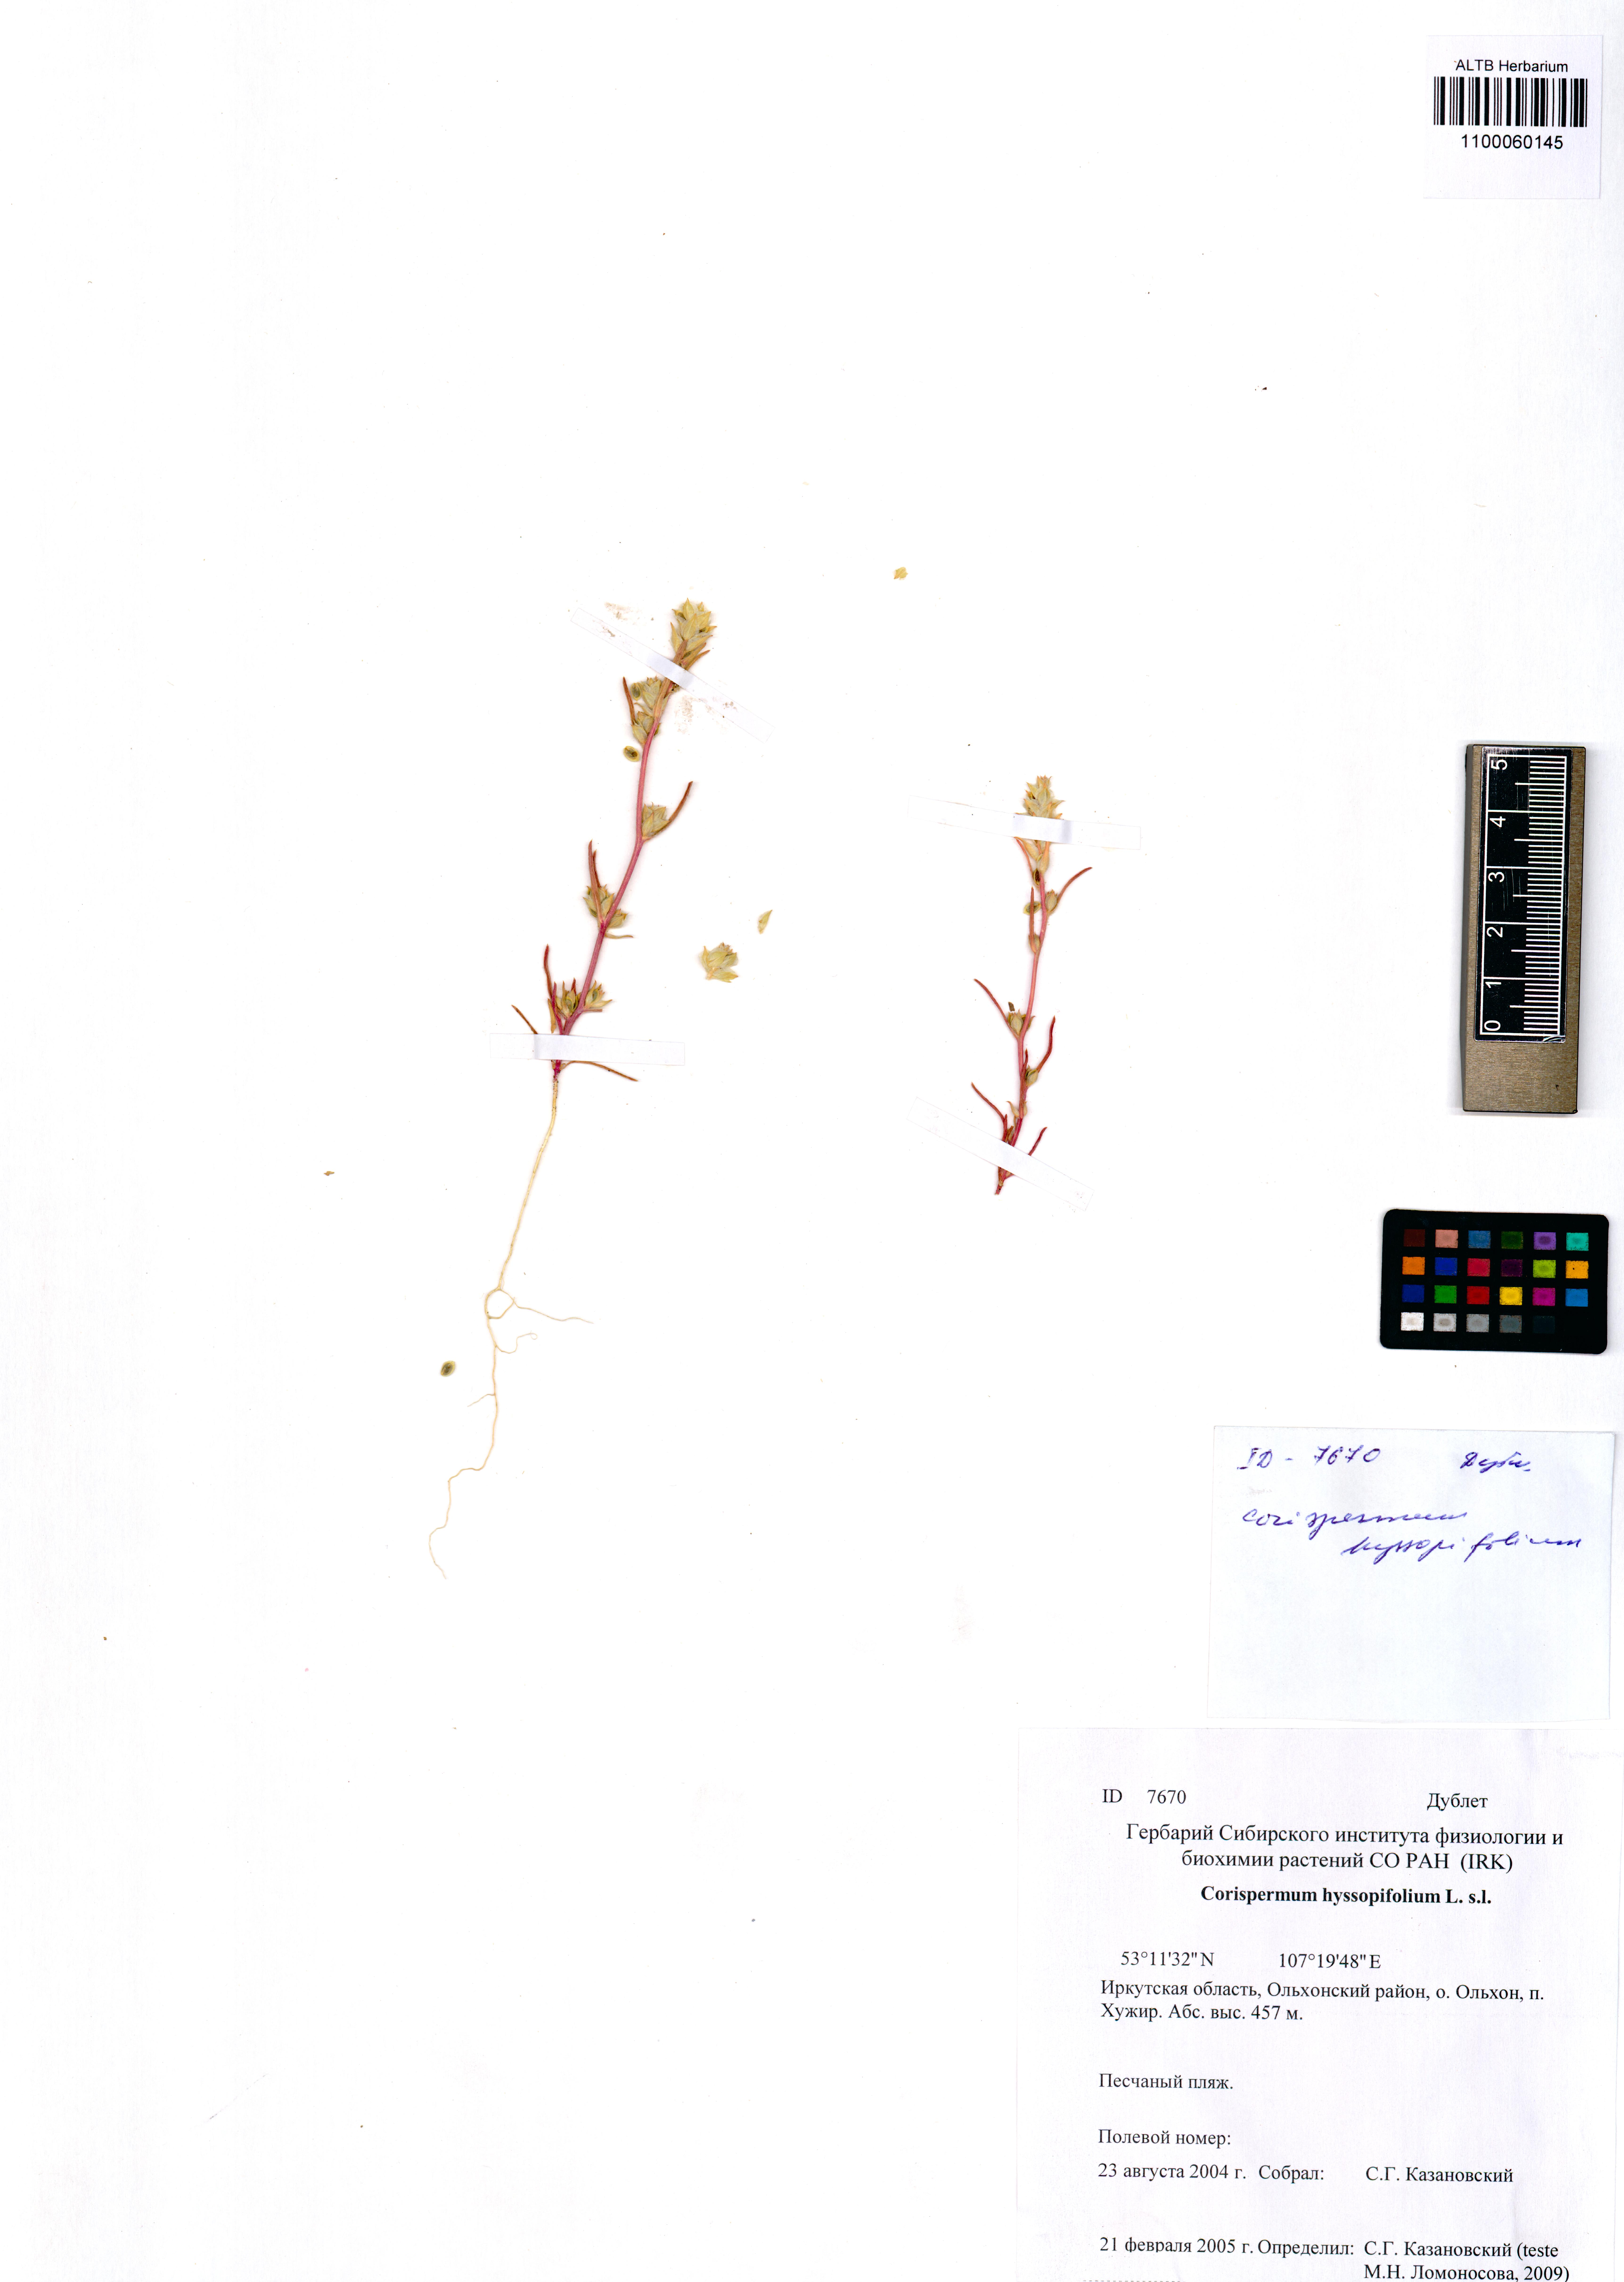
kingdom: Plantae
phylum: Tracheophyta
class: Magnoliopsida
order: Caryophyllales
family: Amaranthaceae
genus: Corispermum
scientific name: Corispermum hyssopifolium
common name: Bugseed
